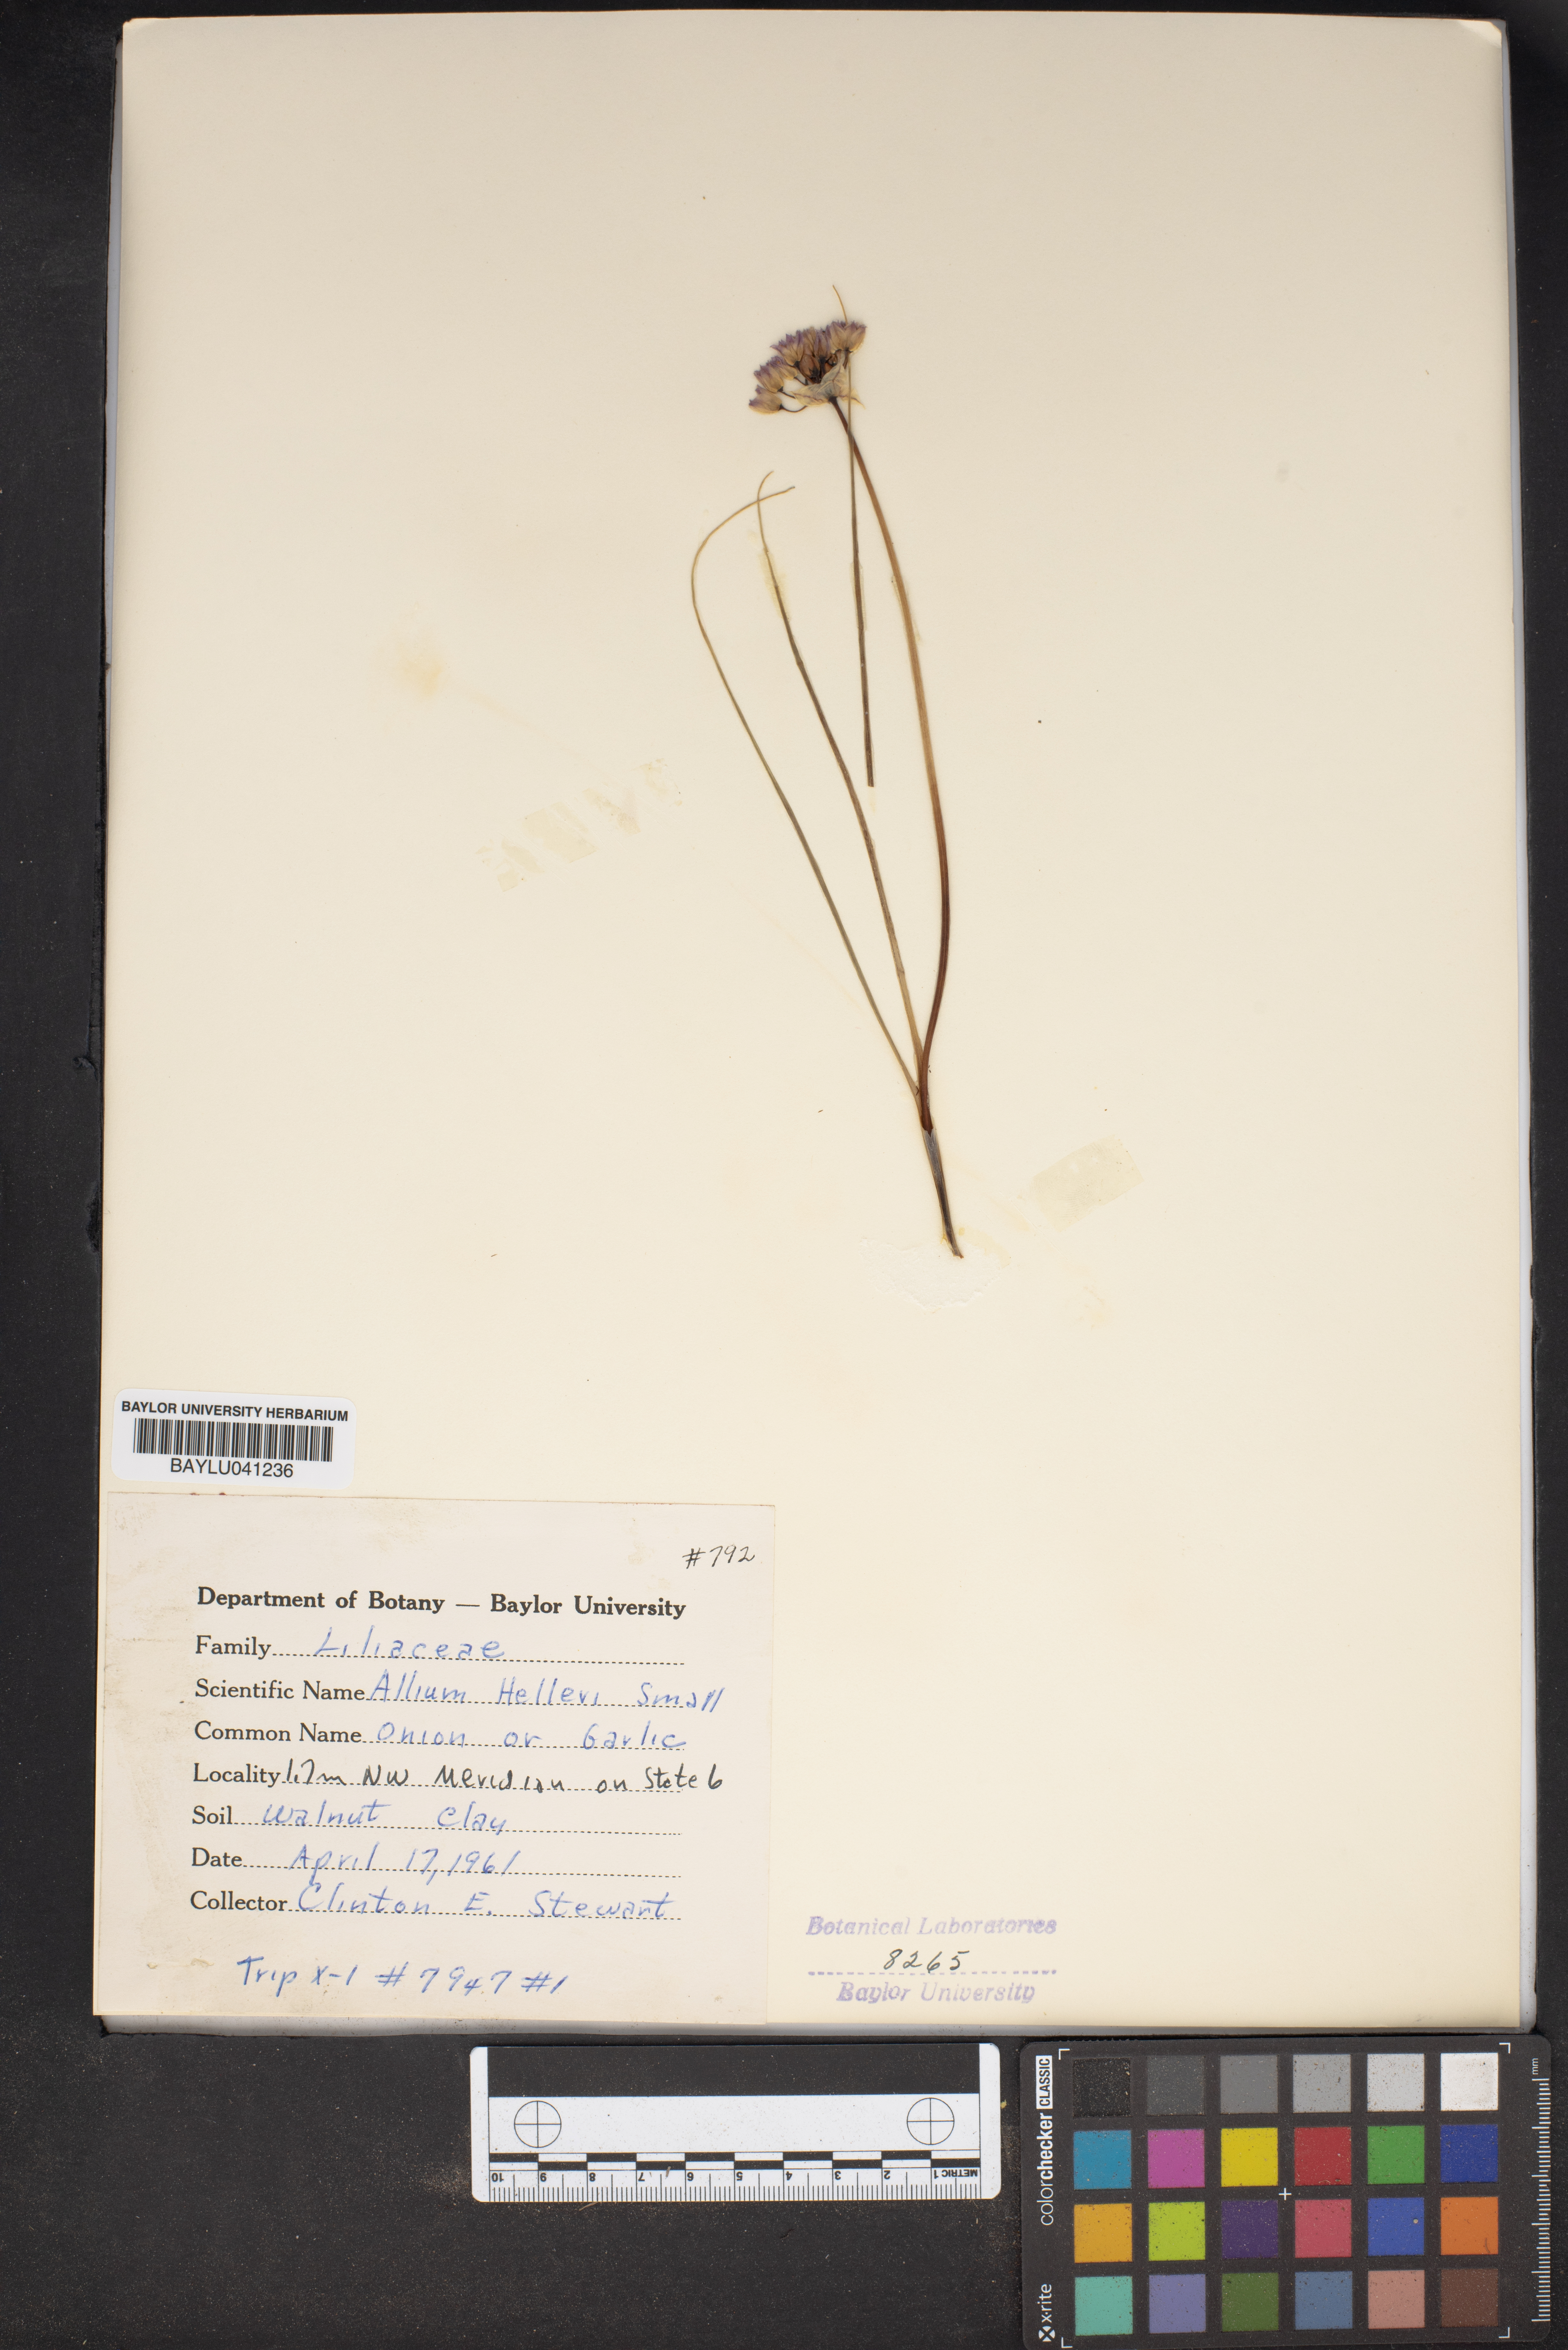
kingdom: Plantae
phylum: Tracheophyta
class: Liliopsida
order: Asparagales
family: Amaryllidaceae
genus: Allium
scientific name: Allium drummondii
